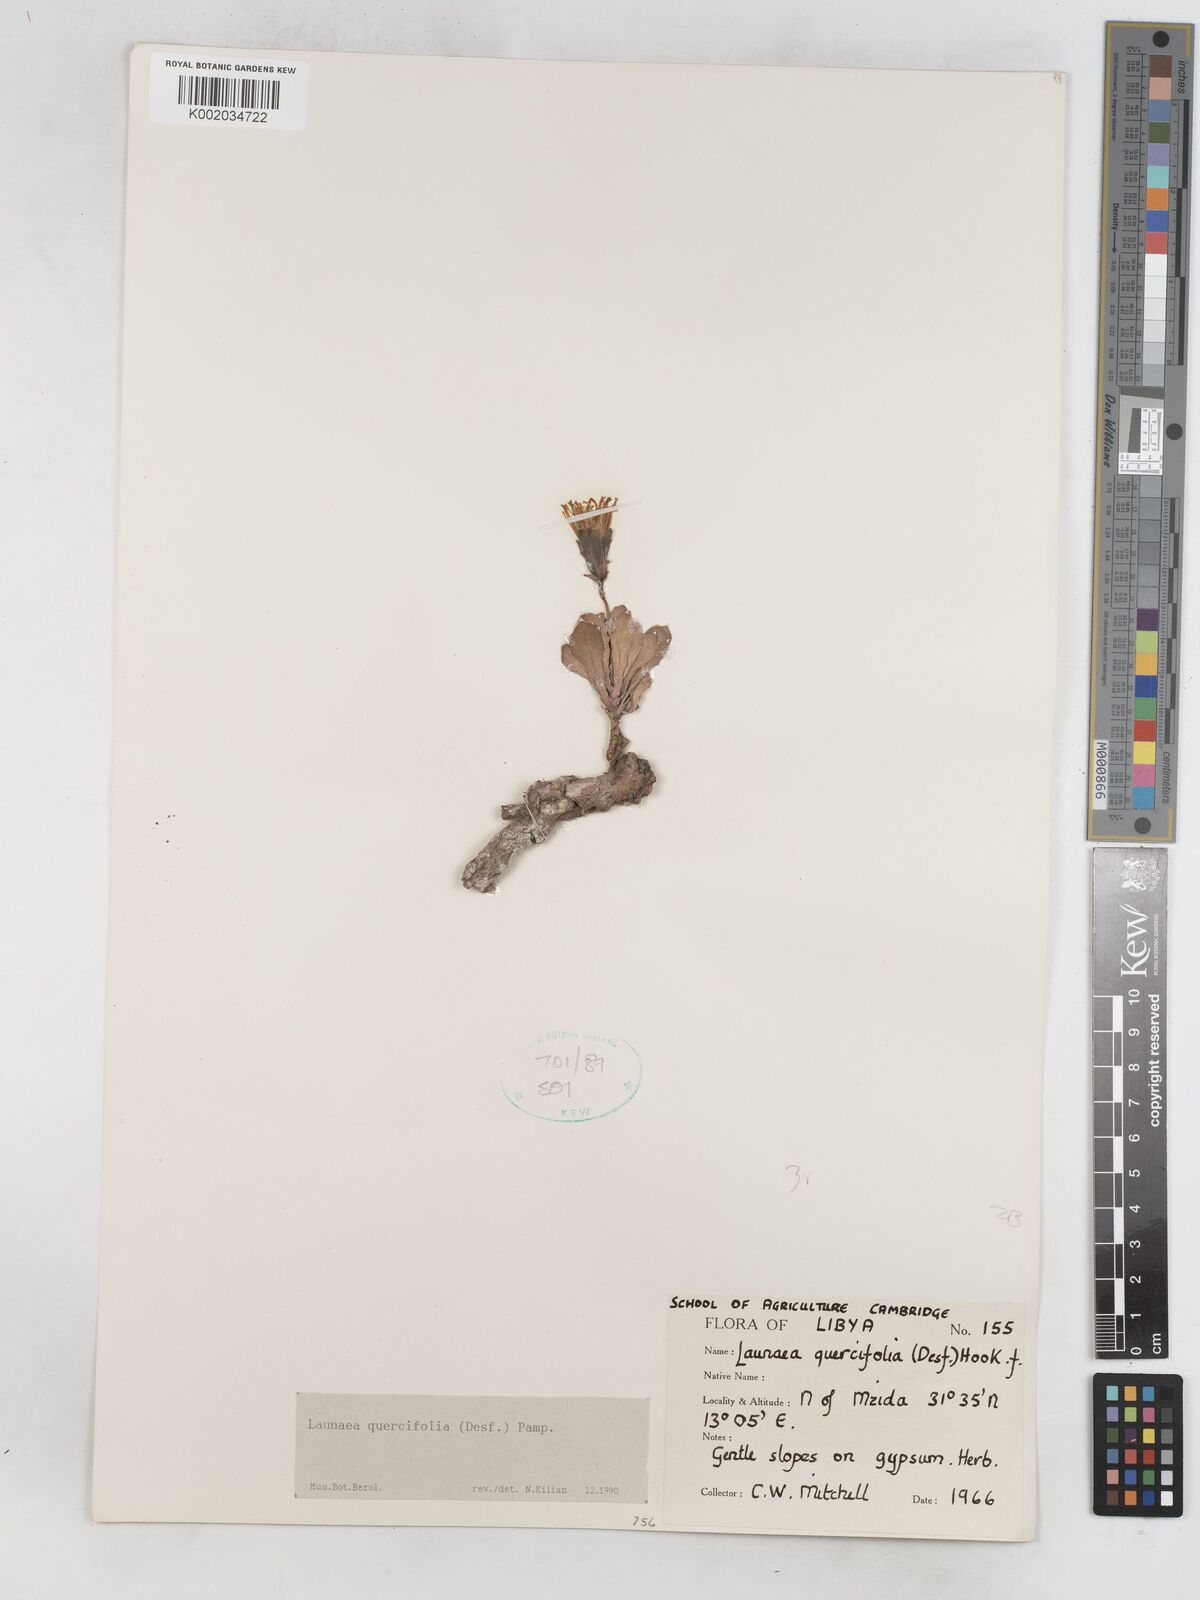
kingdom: Plantae
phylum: Tracheophyta
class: Magnoliopsida
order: Asterales
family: Asteraceae
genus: Launaea
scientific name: Launaea quercifolia
